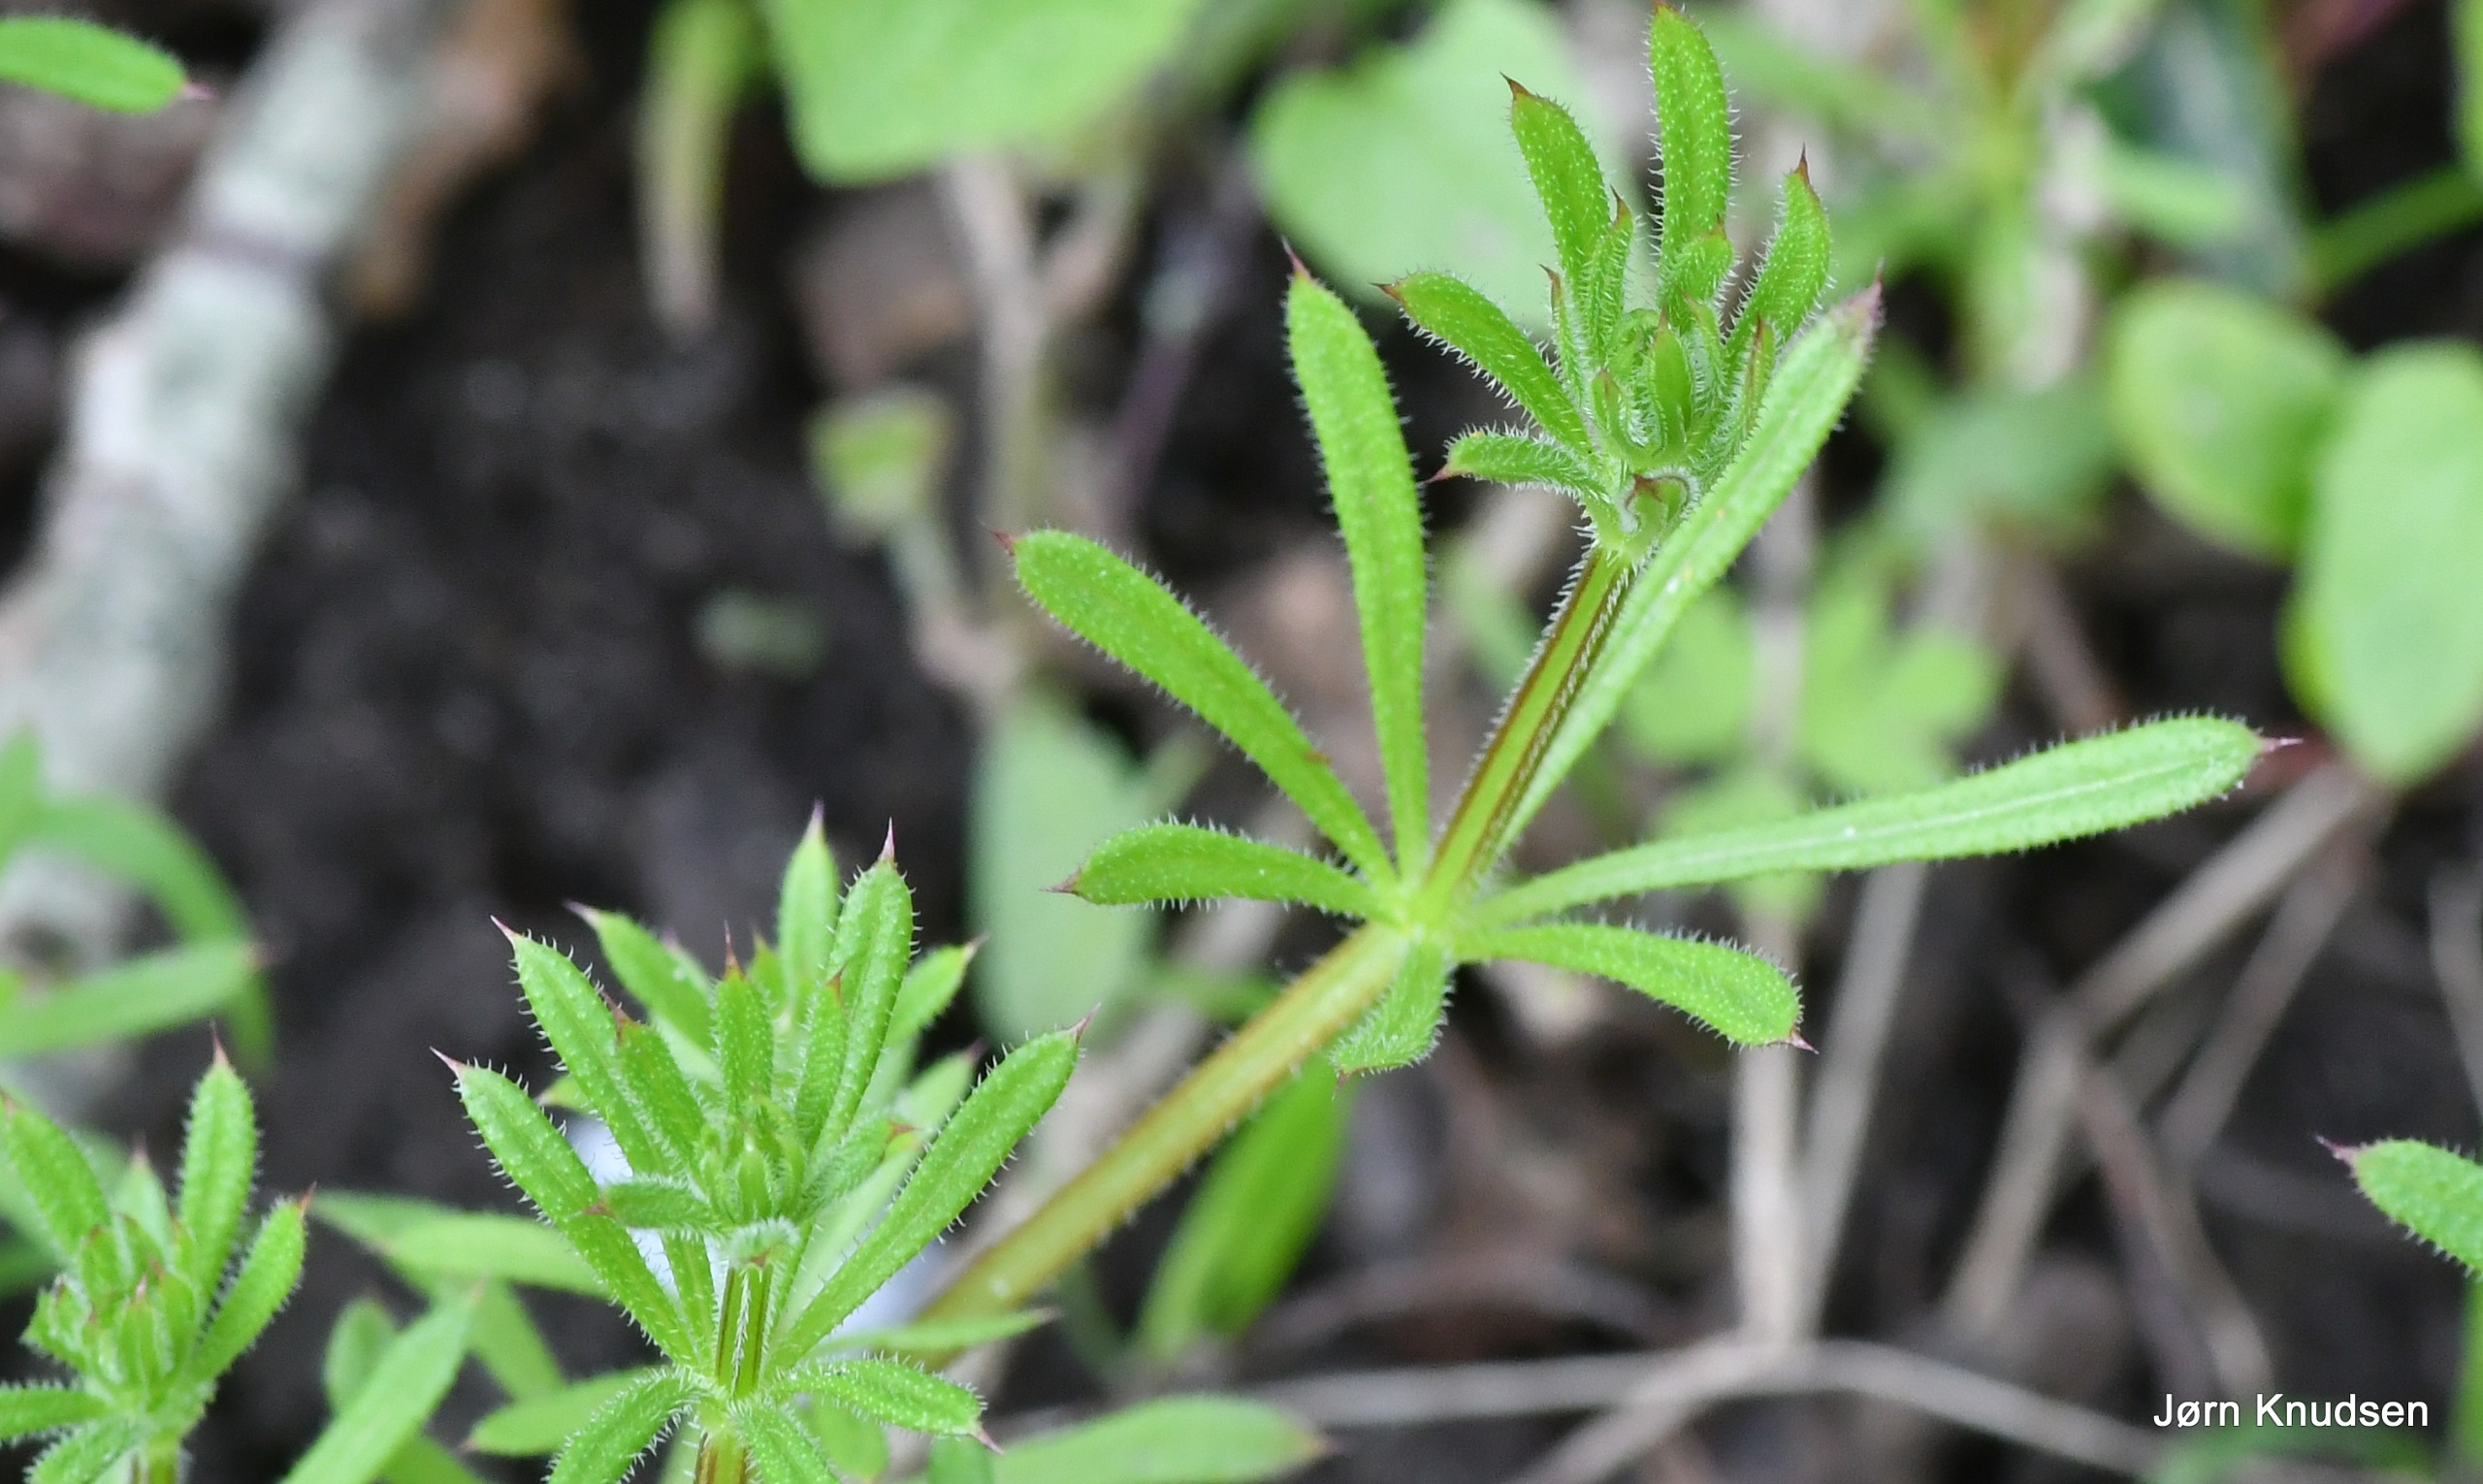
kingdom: Plantae
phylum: Tracheophyta
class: Magnoliopsida
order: Gentianales
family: Rubiaceae
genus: Galium
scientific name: Galium aparine
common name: Burre-snerre
